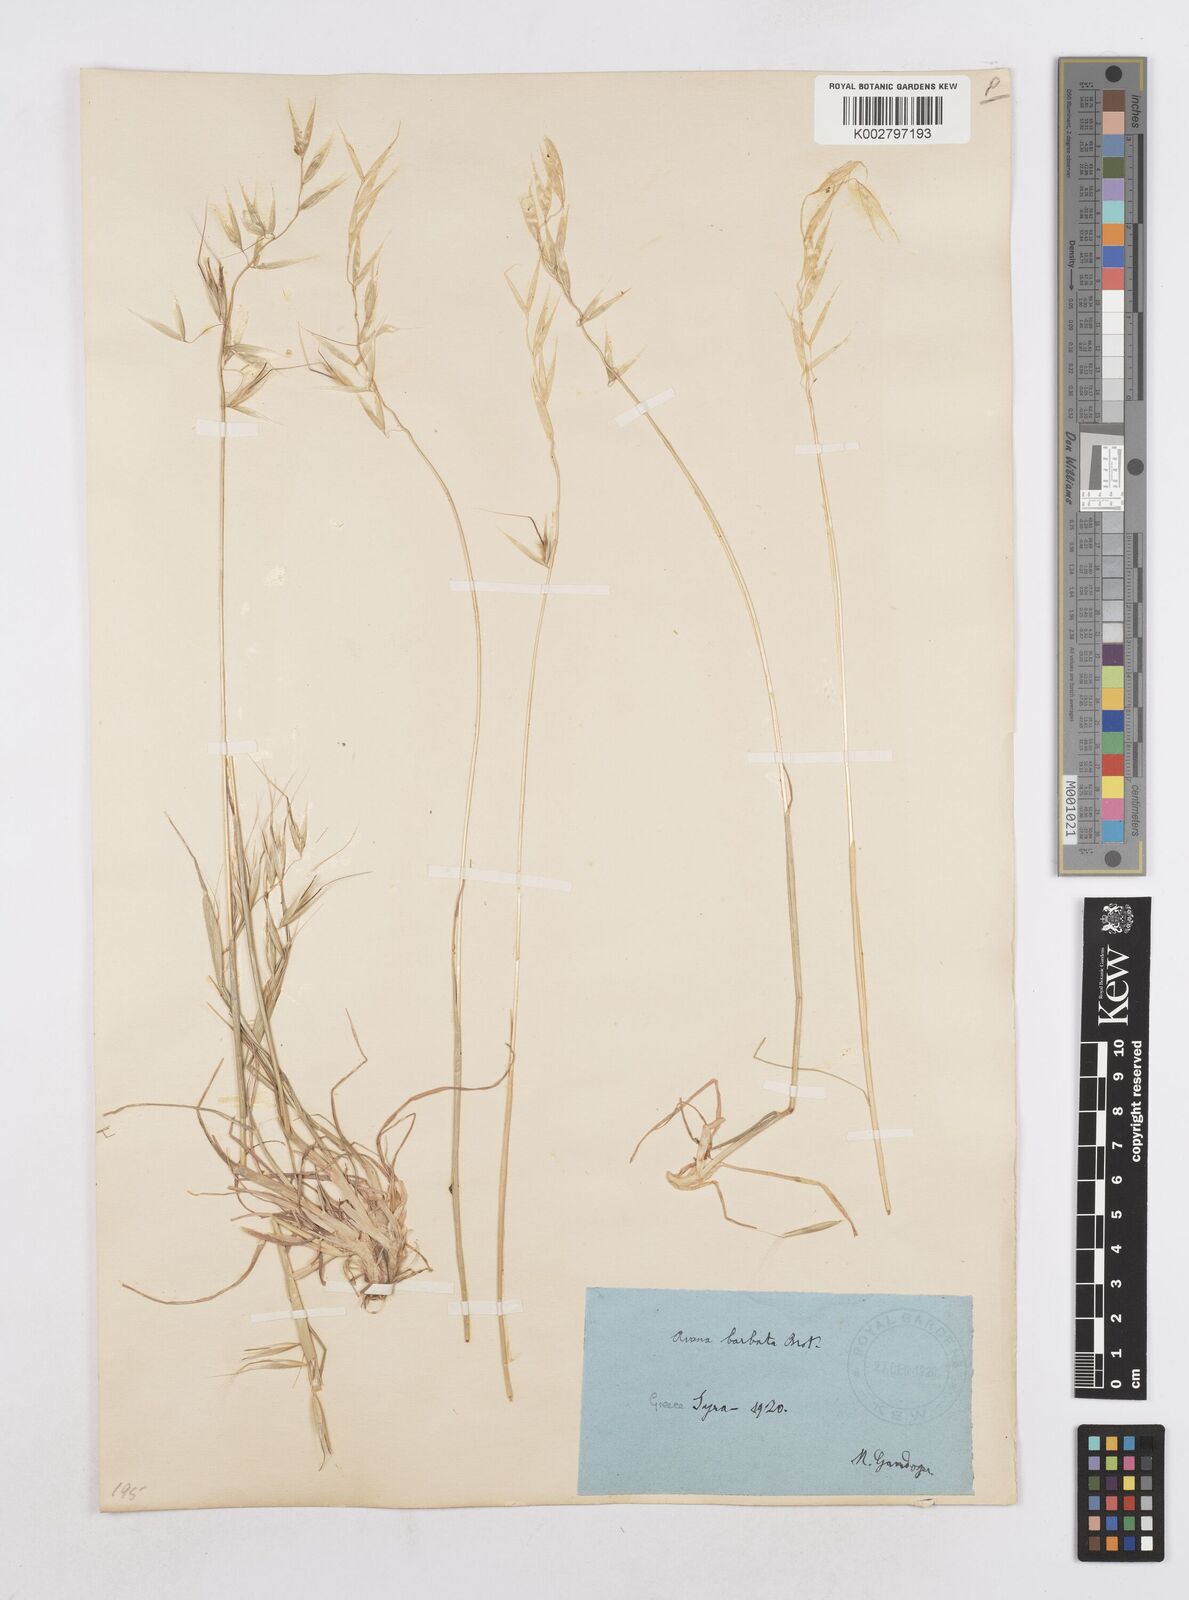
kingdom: Plantae
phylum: Tracheophyta
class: Liliopsida
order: Poales
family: Poaceae
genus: Avena
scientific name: Avena
